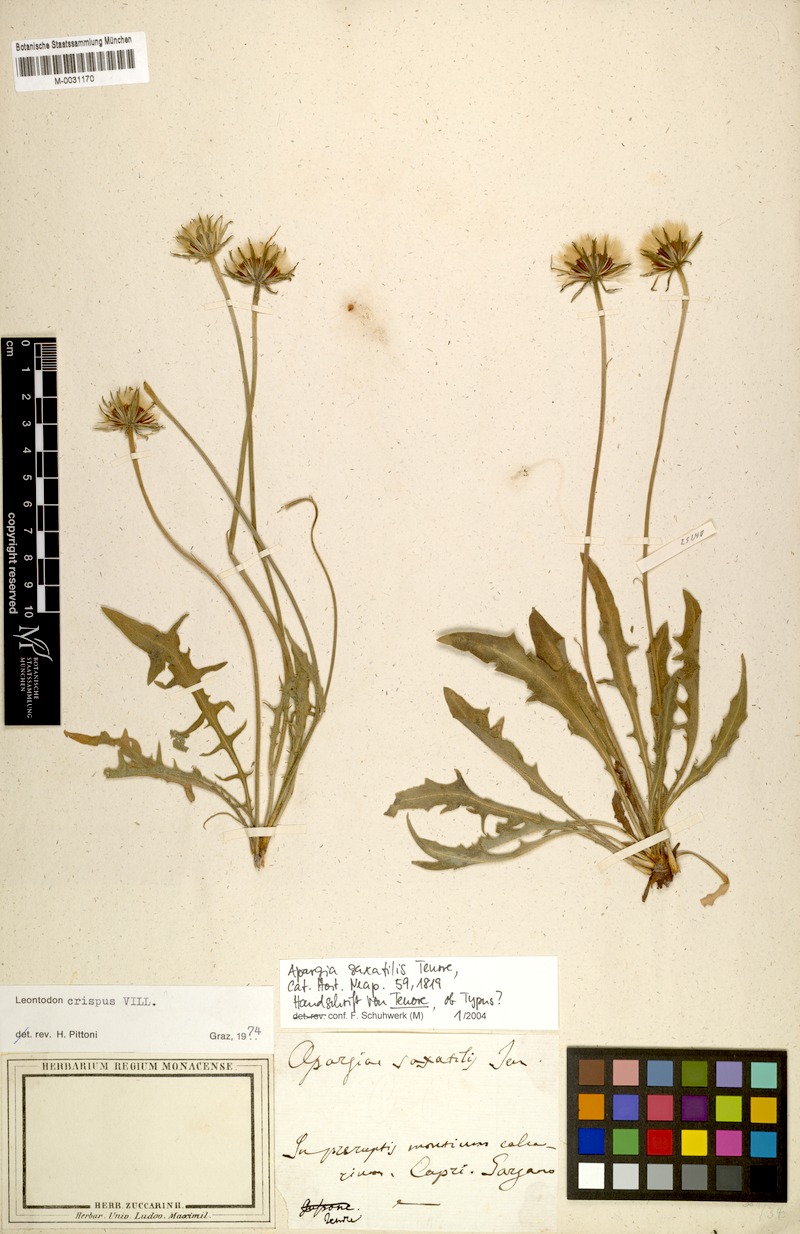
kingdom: Plantae
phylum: Tracheophyta
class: Magnoliopsida
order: Asterales
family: Asteraceae
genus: Leontodon
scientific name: Leontodon crispus
